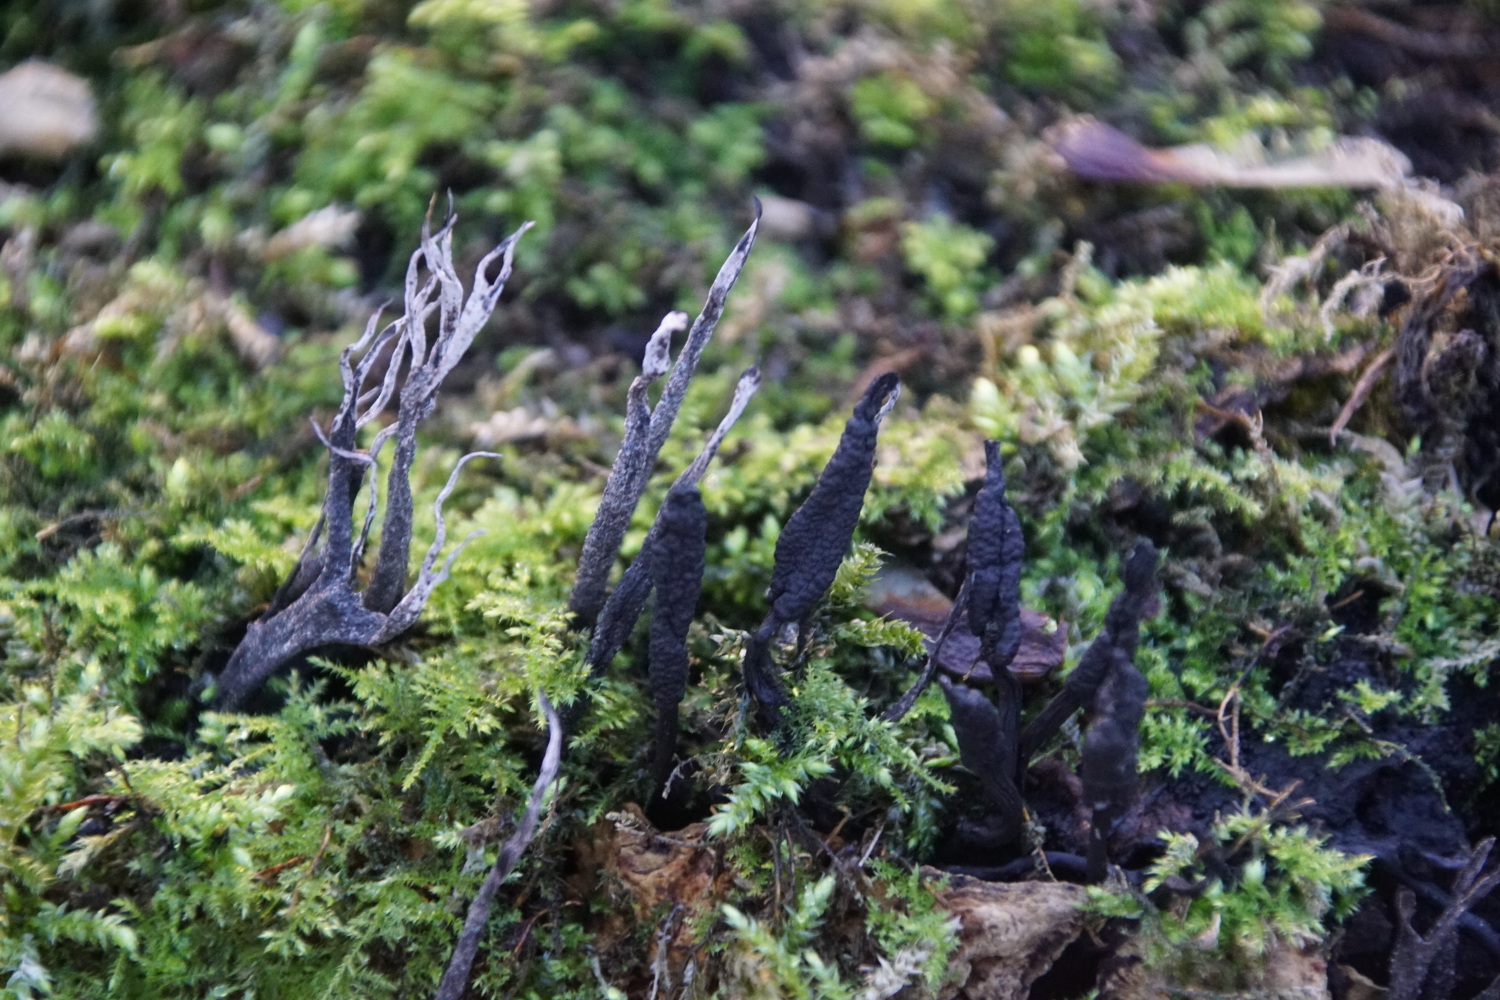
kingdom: Fungi
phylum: Ascomycota
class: Sordariomycetes
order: Xylariales
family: Xylariaceae
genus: Xylaria
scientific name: Xylaria hypoxylon
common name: grenet stødsvamp
